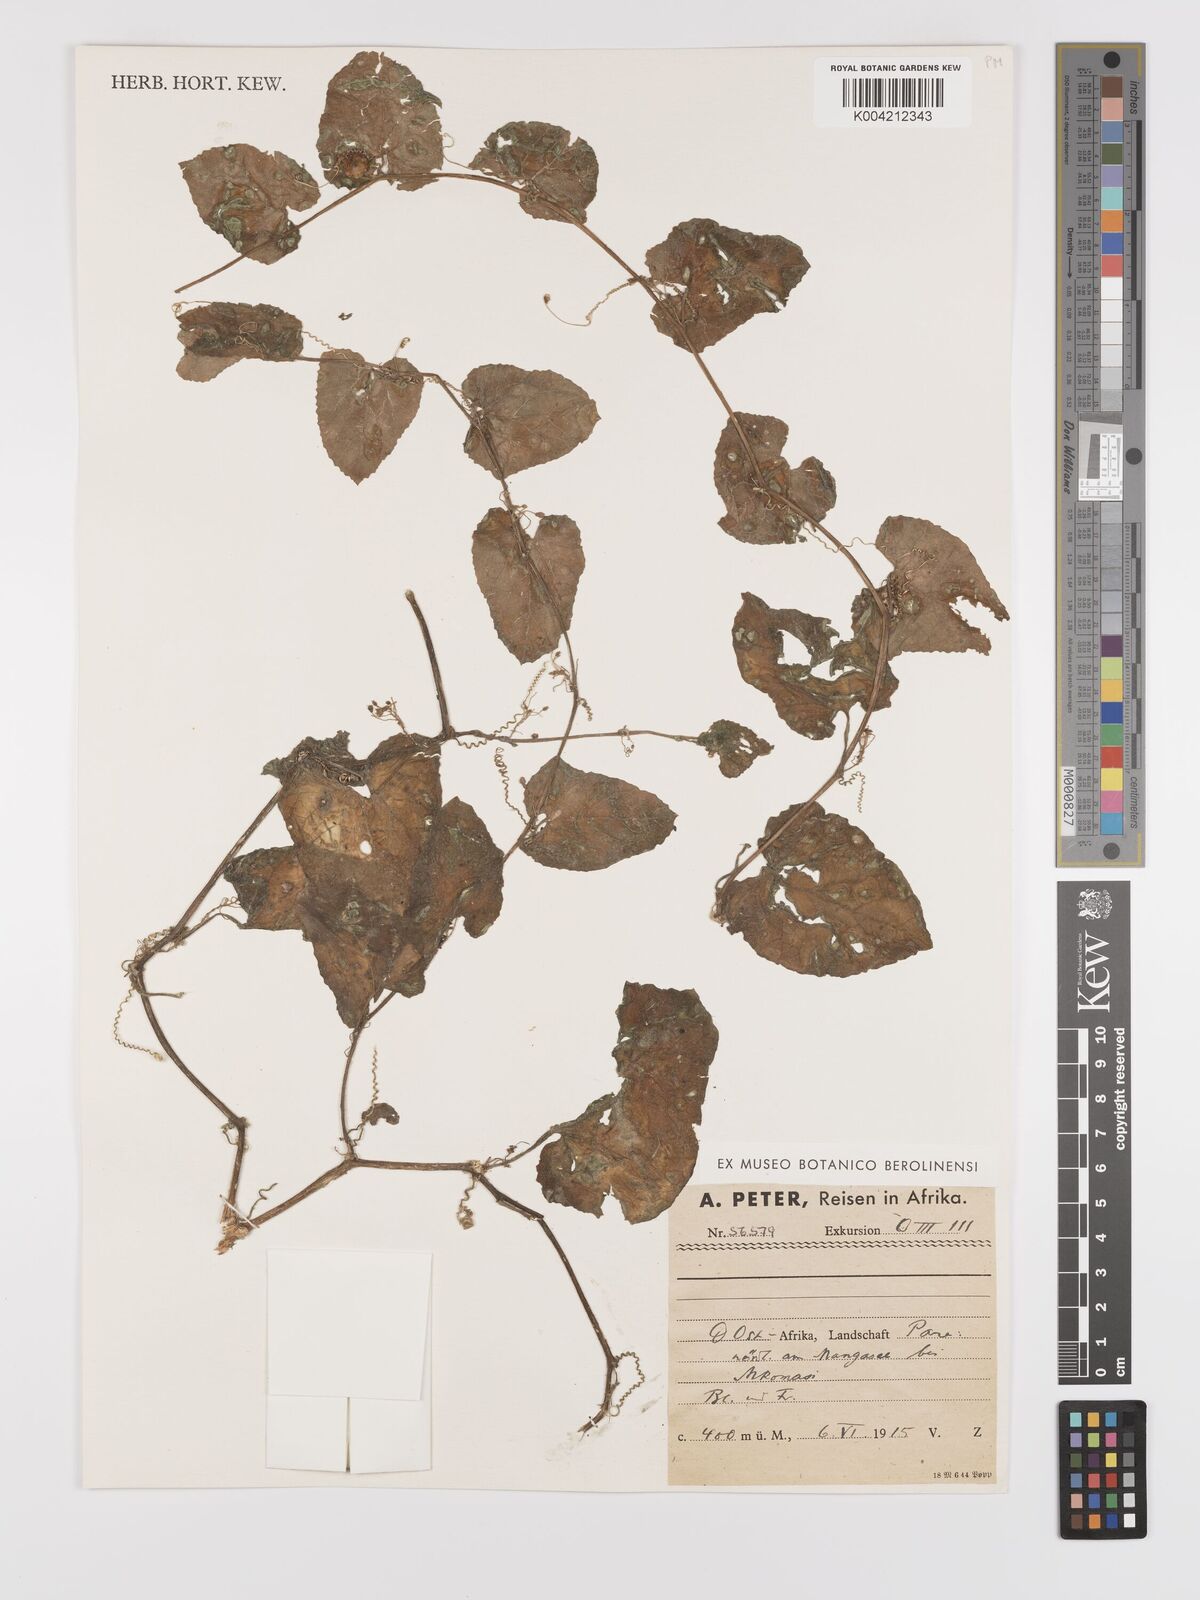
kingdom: Plantae
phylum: Tracheophyta
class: Magnoliopsida
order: Cucurbitales
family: Cucurbitaceae
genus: Kedrostis
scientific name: Kedrostis foetidissima
